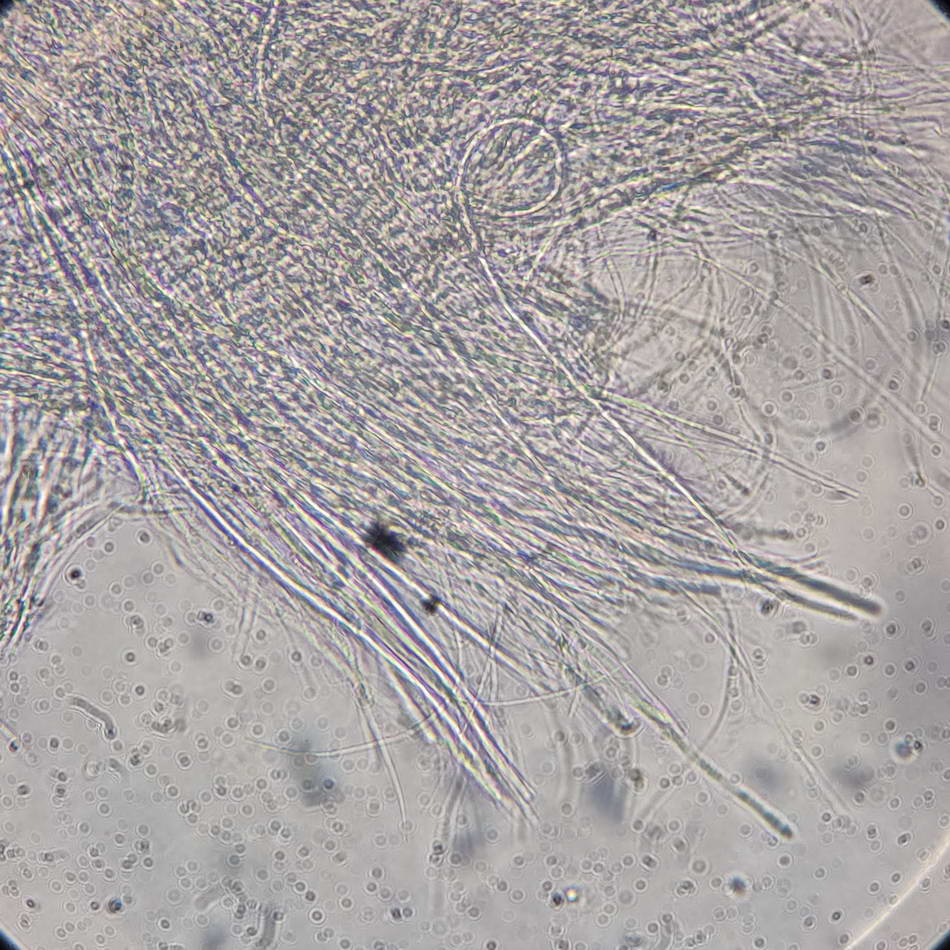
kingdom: Fungi
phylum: Ascomycota
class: Dothideomycetes
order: Acrospermales
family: Acrospermaceae
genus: Acrospermum
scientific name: Acrospermum pallidulum
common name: snerre-stængeltunge
